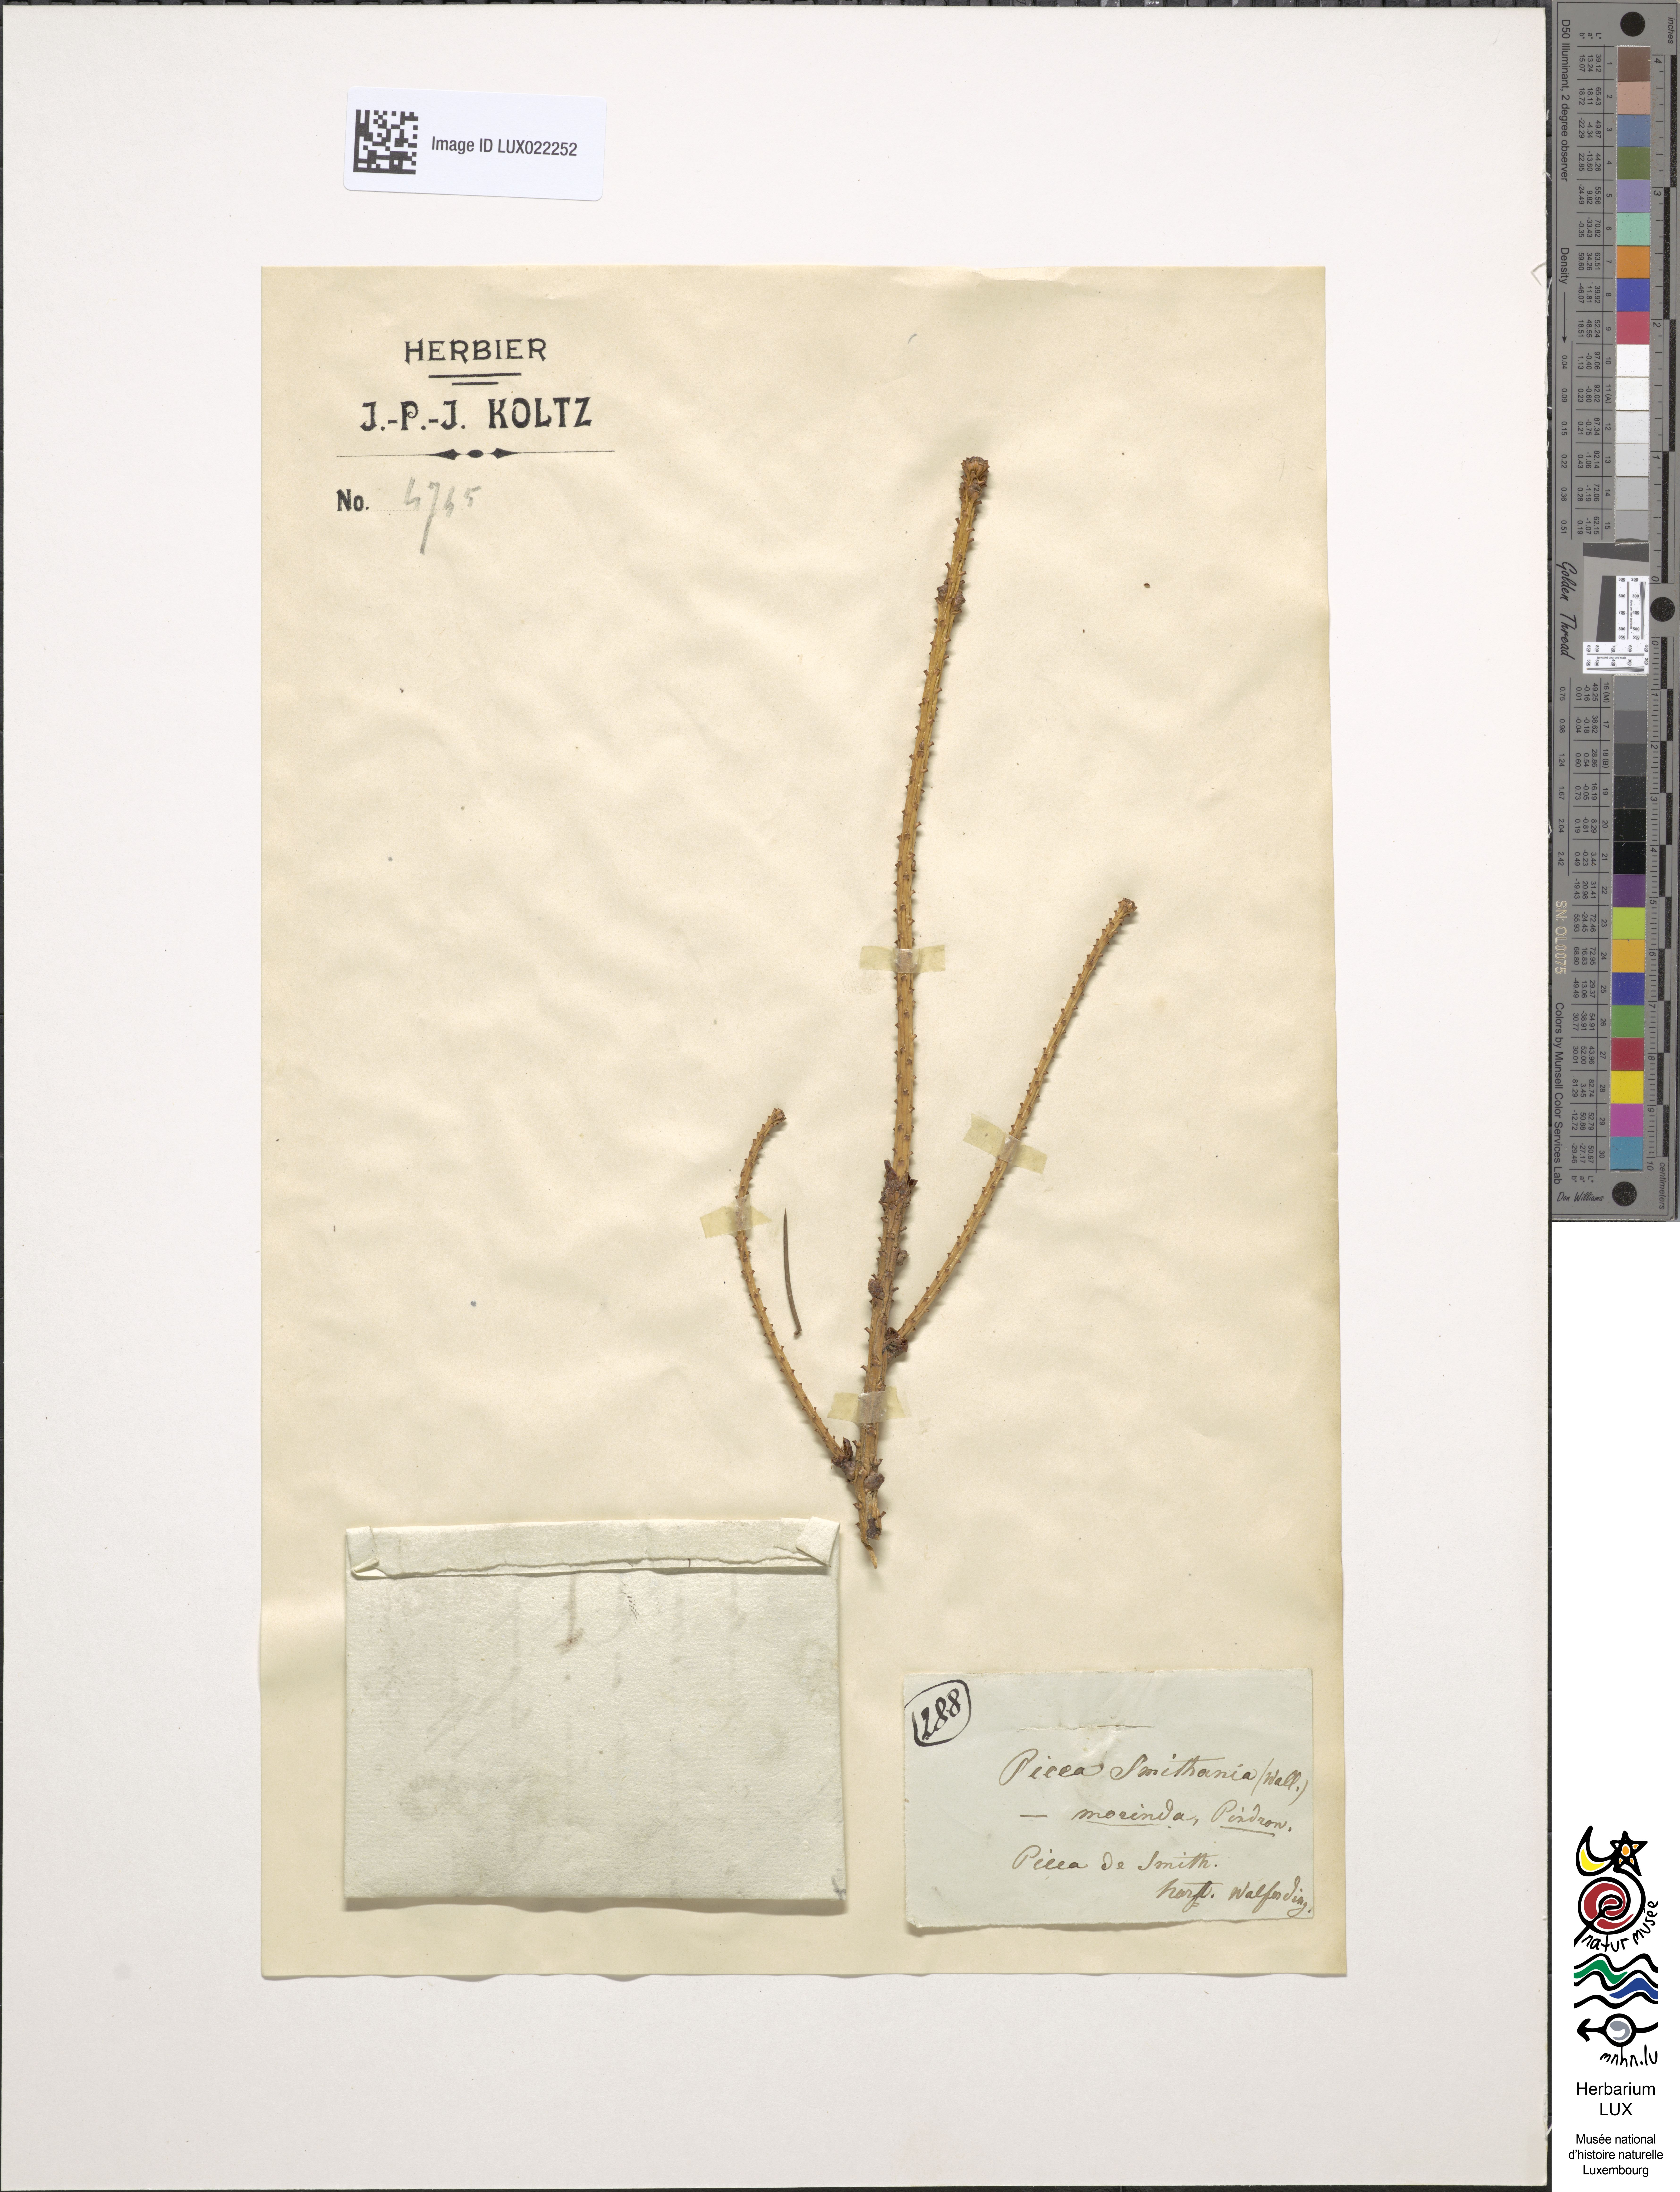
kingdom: Plantae
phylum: Tracheophyta
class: Pinopsida
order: Pinales
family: Pinaceae
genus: Picea
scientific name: Picea smithiana
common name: Morinda spruce
